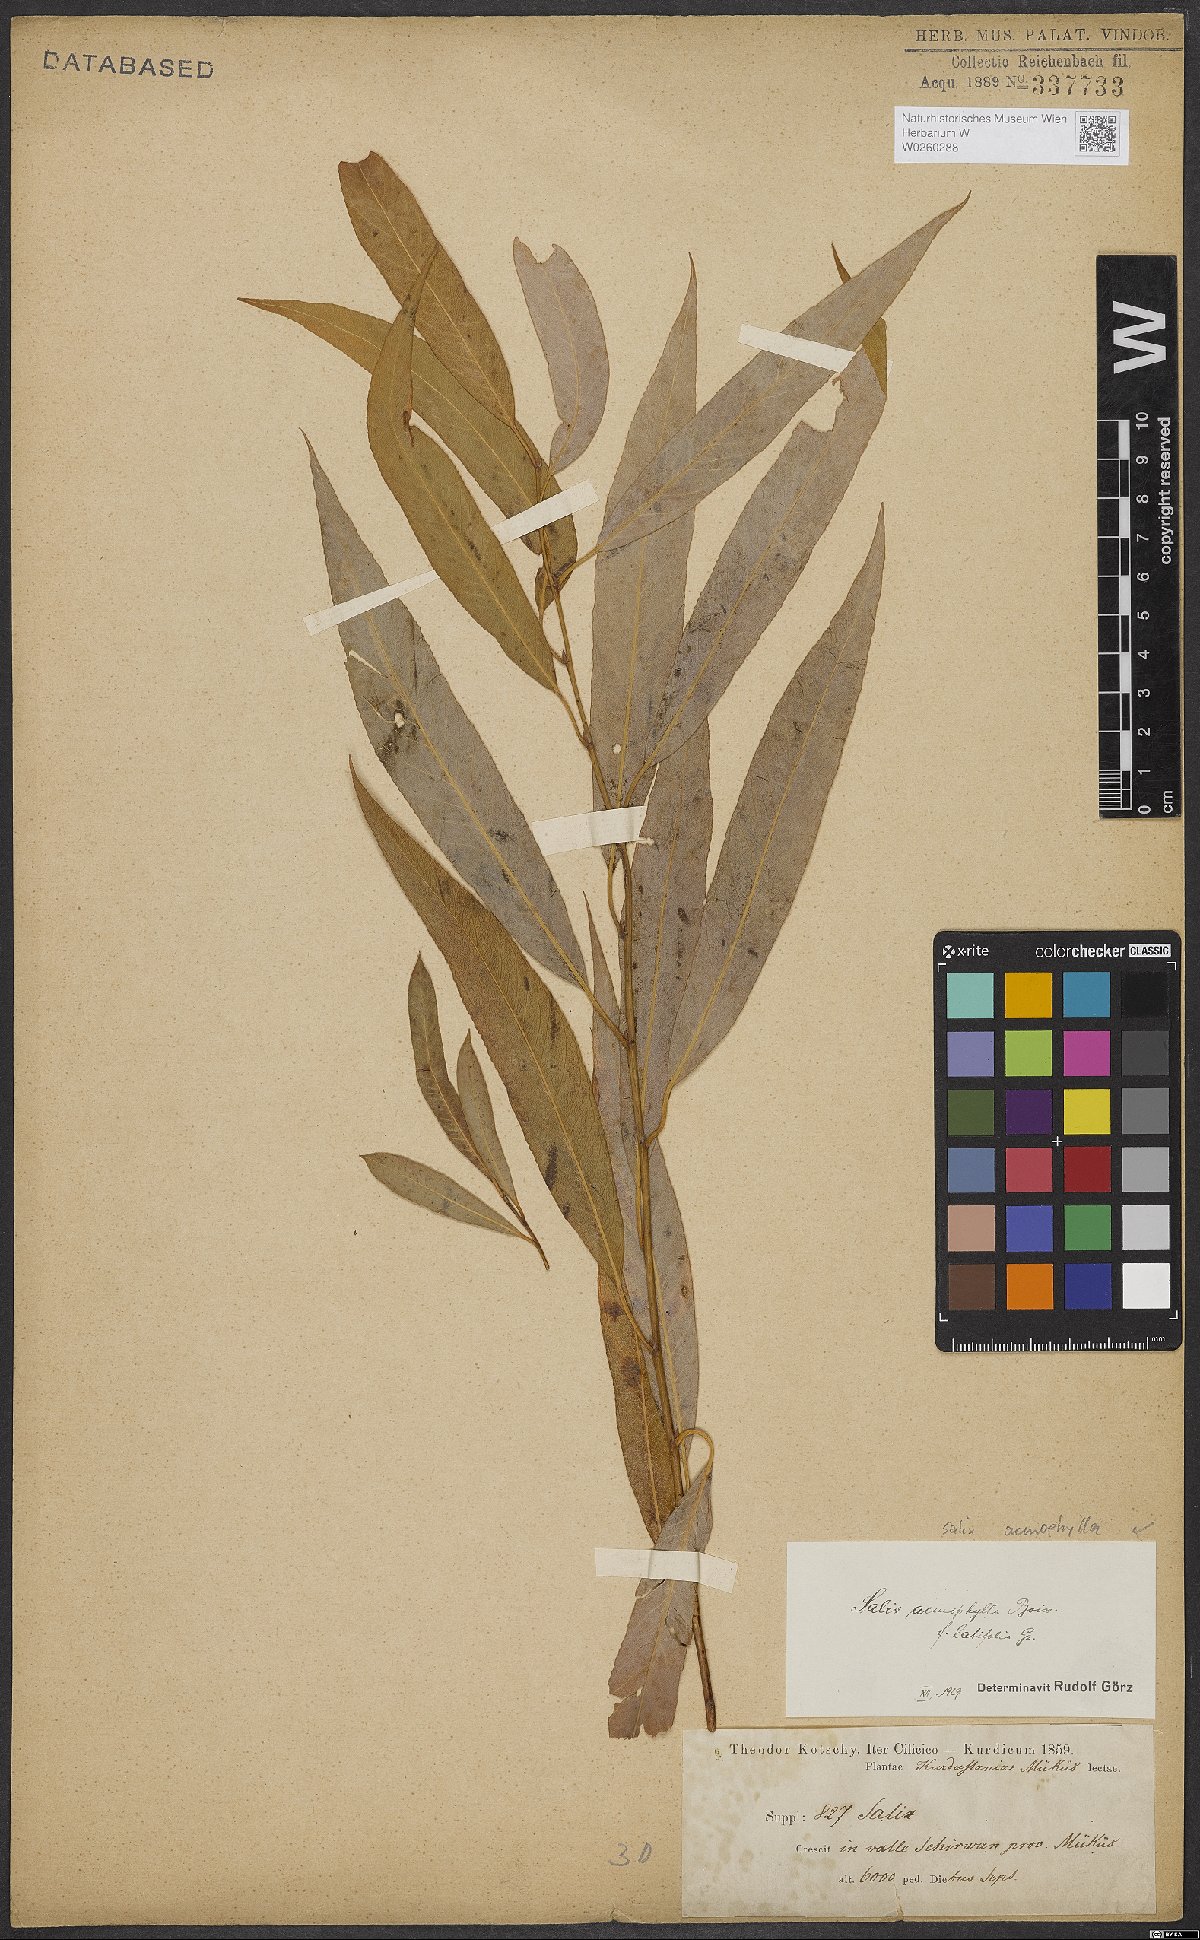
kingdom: Plantae
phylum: Tracheophyta
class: Magnoliopsida
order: Malpighiales
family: Salicaceae
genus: Salix
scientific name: Salix acmophylla
